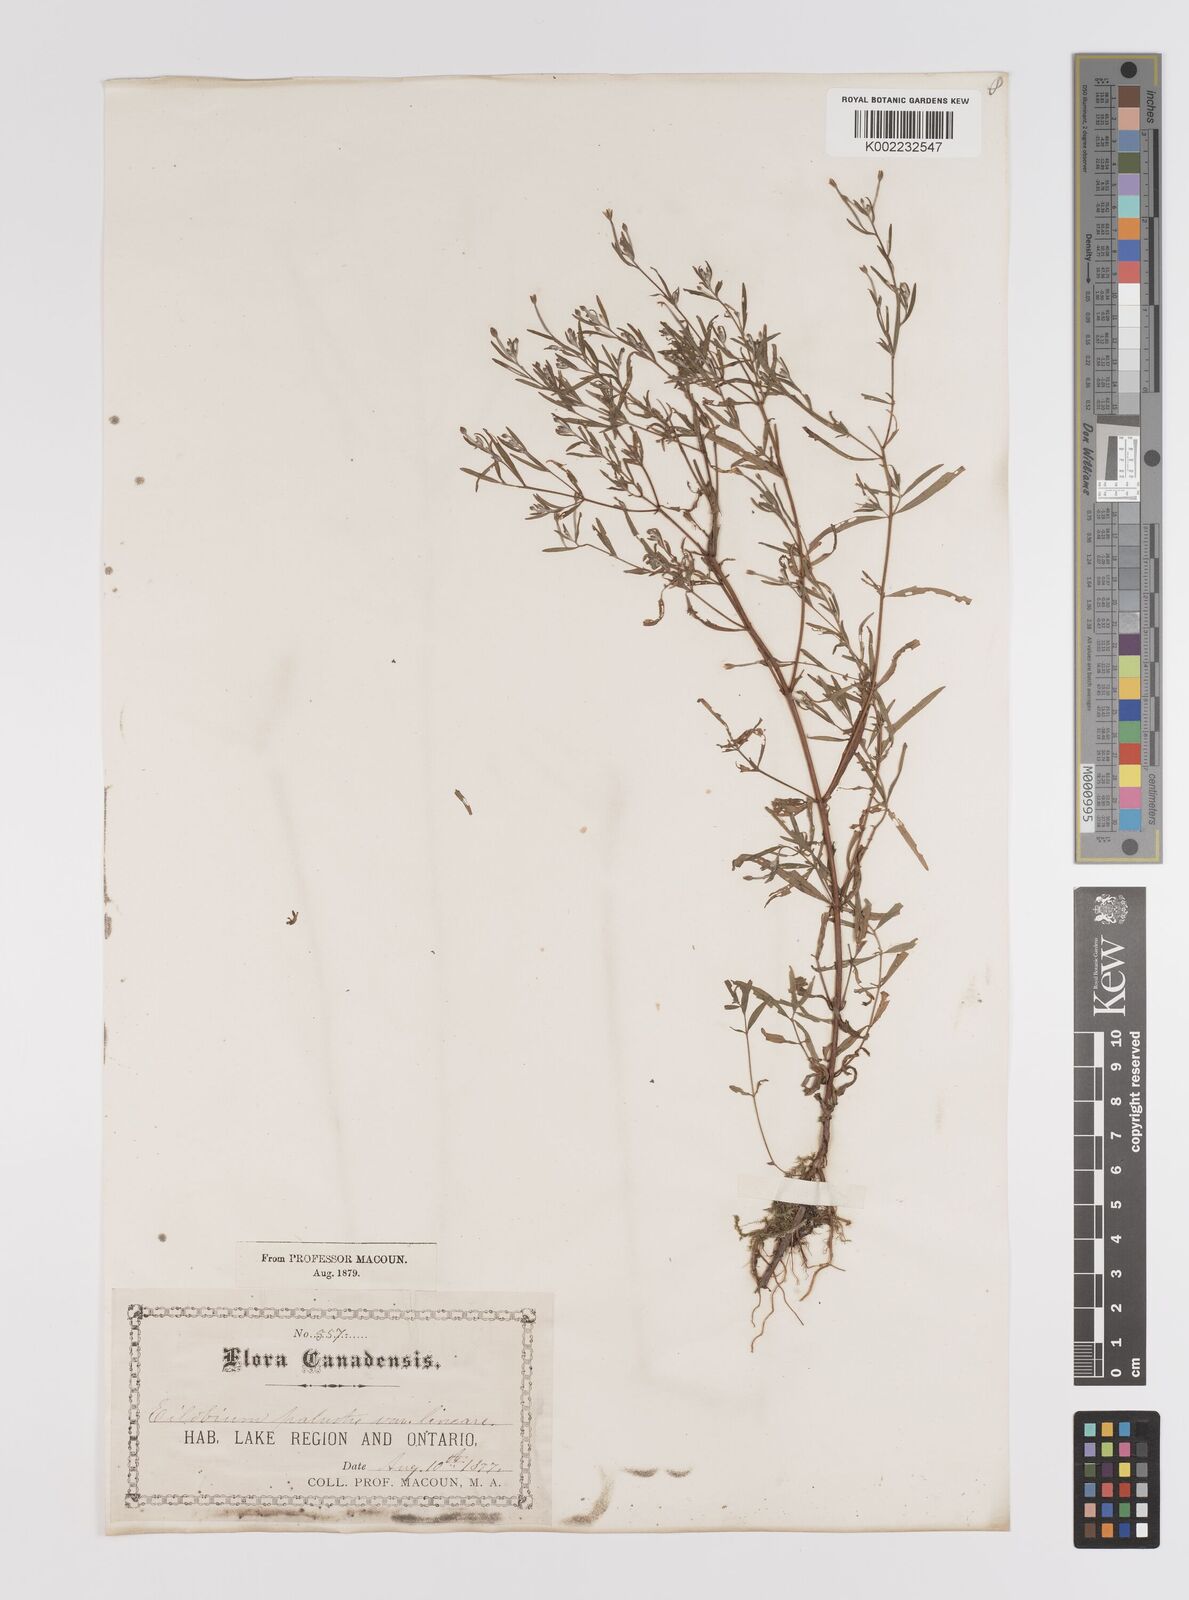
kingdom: Plantae
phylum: Tracheophyta
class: Magnoliopsida
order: Myrtales
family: Onagraceae
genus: Epilobium
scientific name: Epilobium palustre
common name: Marsh willowherb
